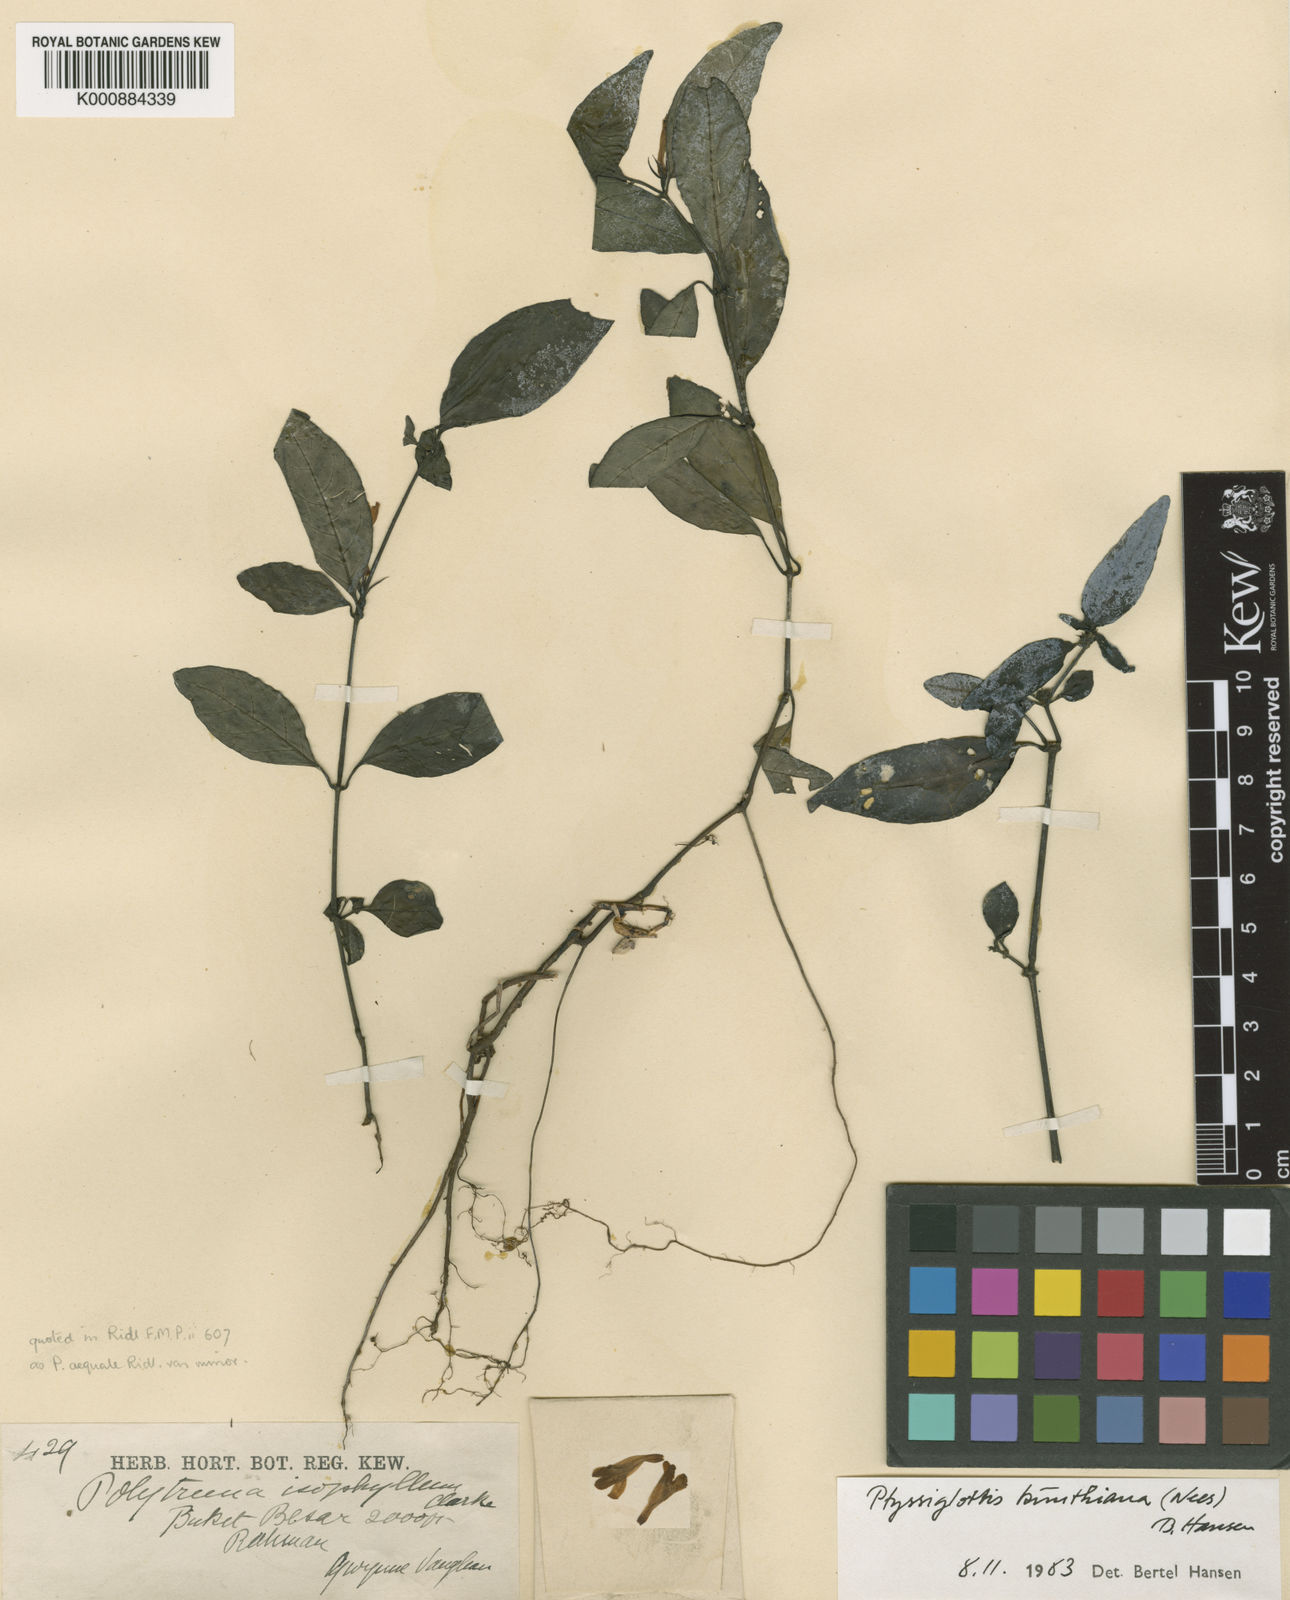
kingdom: Plantae
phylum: Tracheophyta
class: Magnoliopsida
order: Lamiales
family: Acanthaceae
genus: Ptyssiglottis
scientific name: Ptyssiglottis kunthiana
